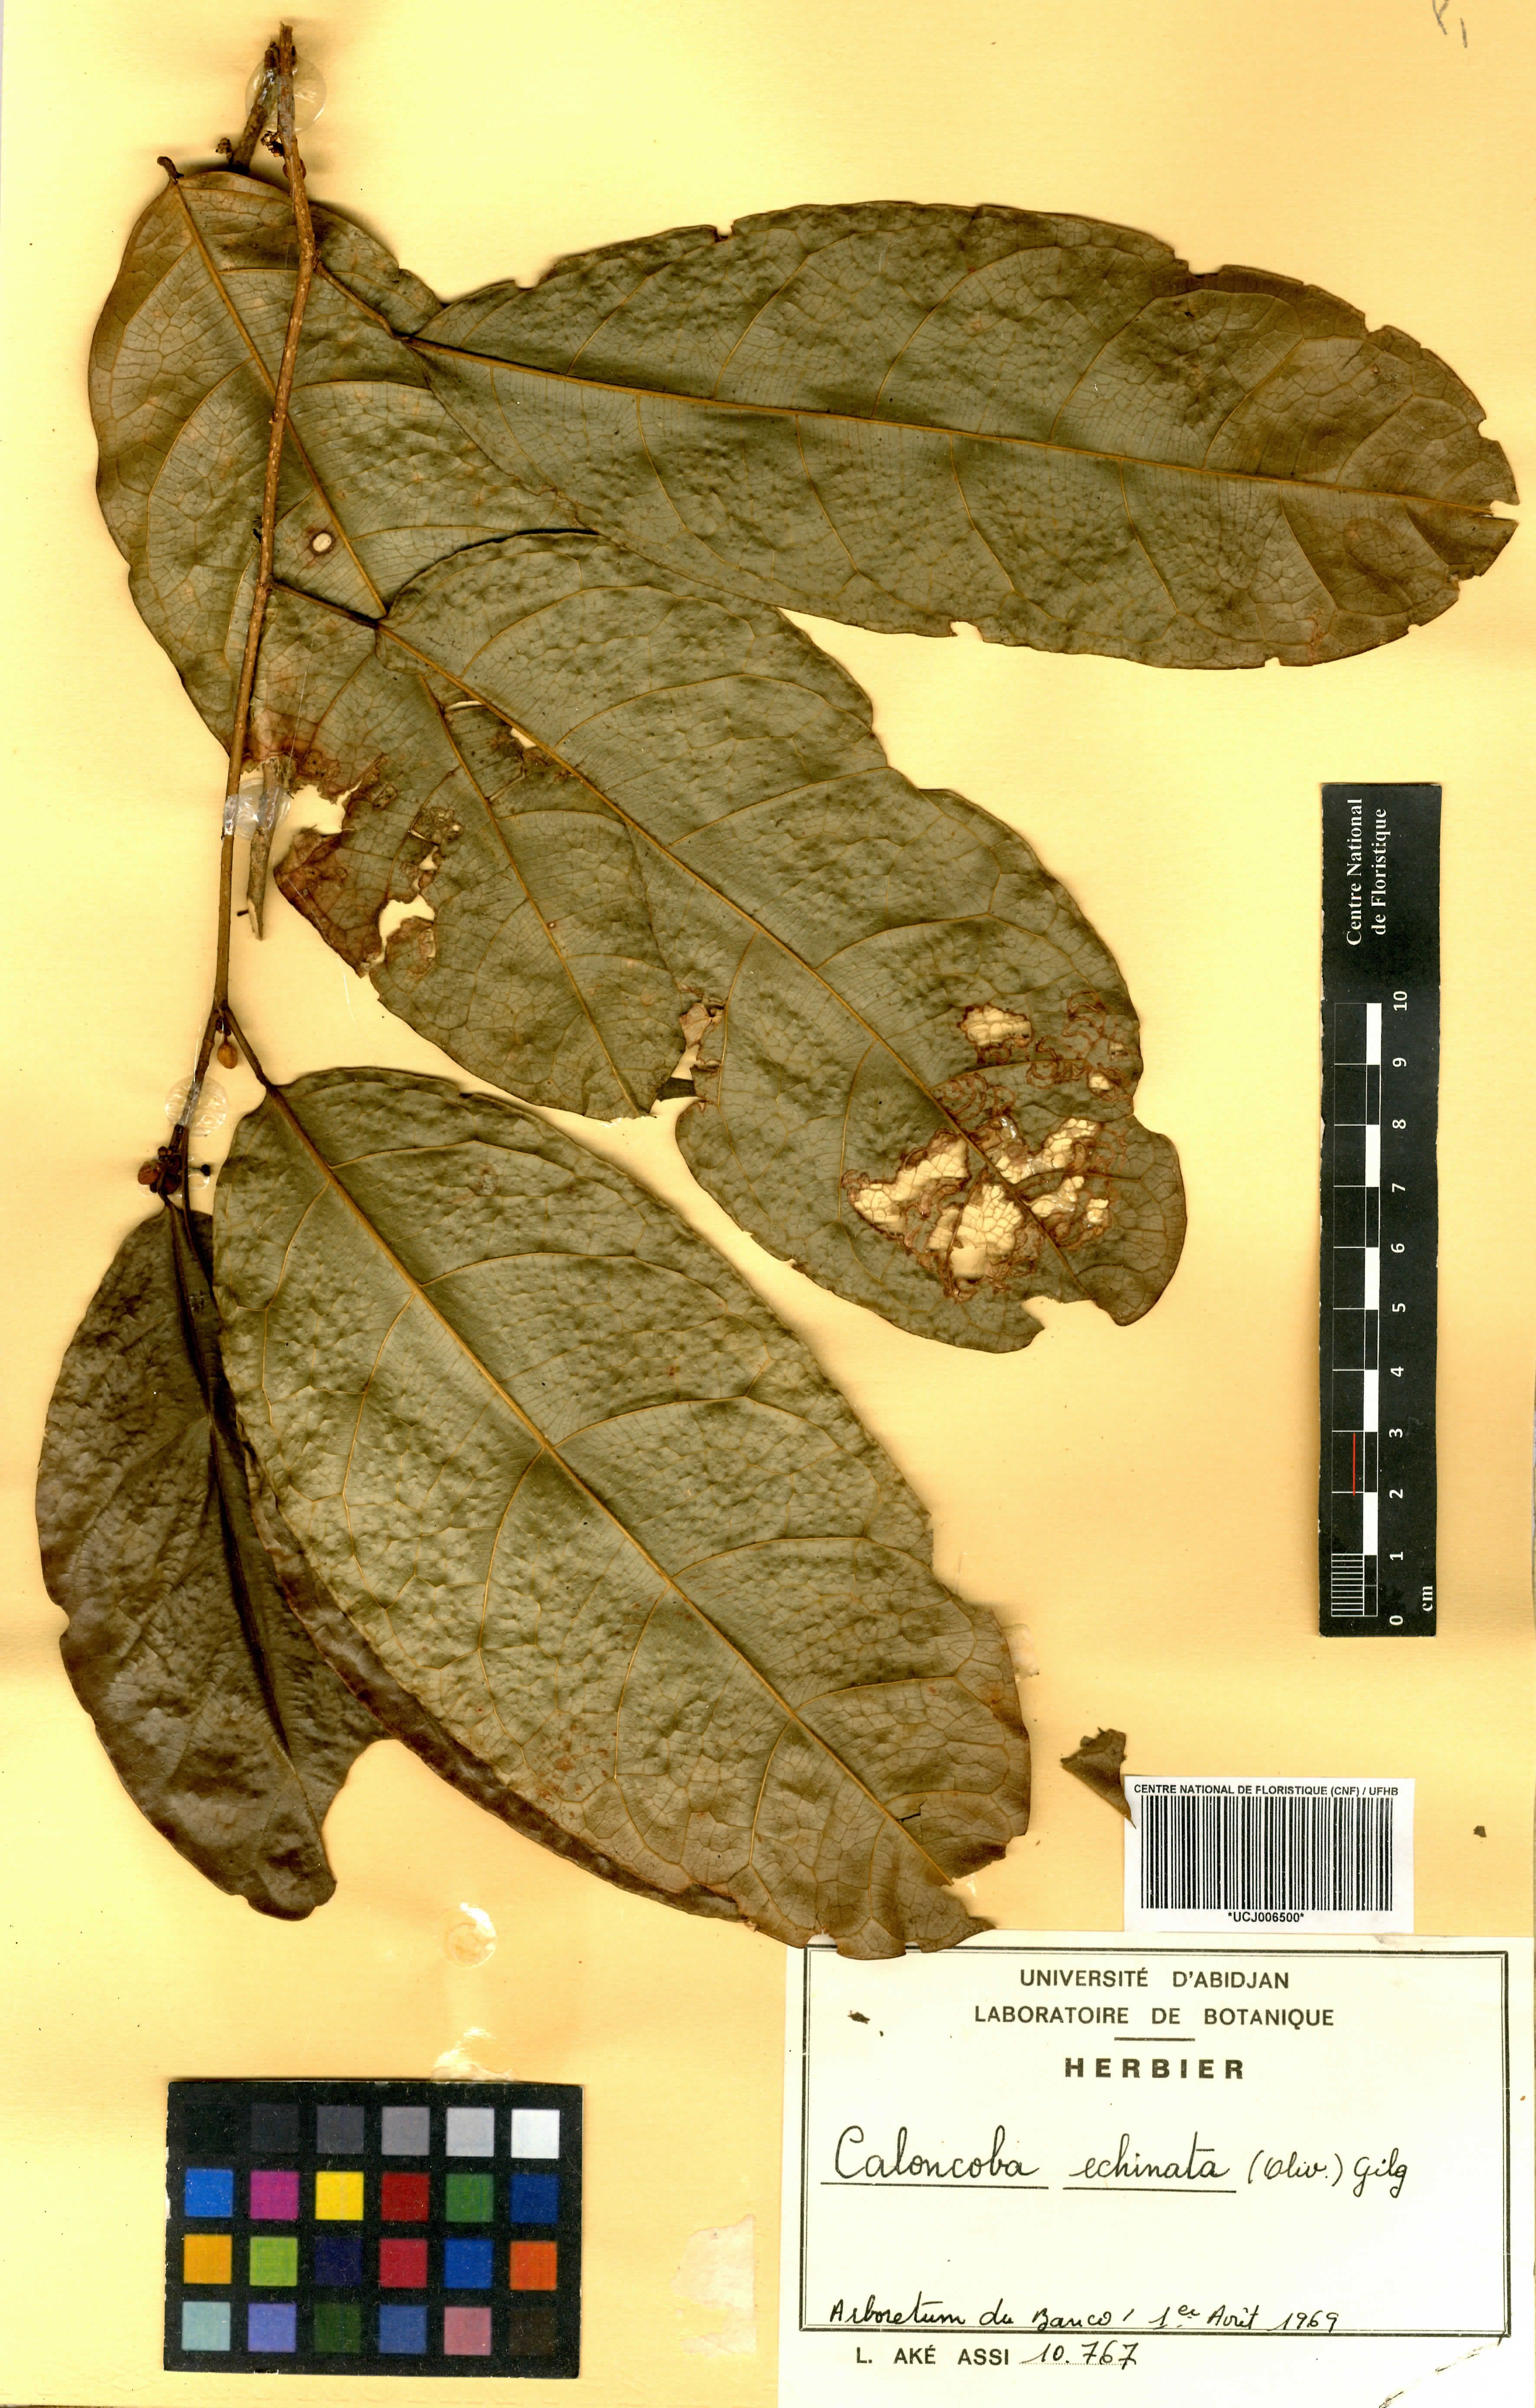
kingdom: Plantae
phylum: Tracheophyta
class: Magnoliopsida
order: Malpighiales
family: Achariaceae
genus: Caloncoba
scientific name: Caloncoba echinata
